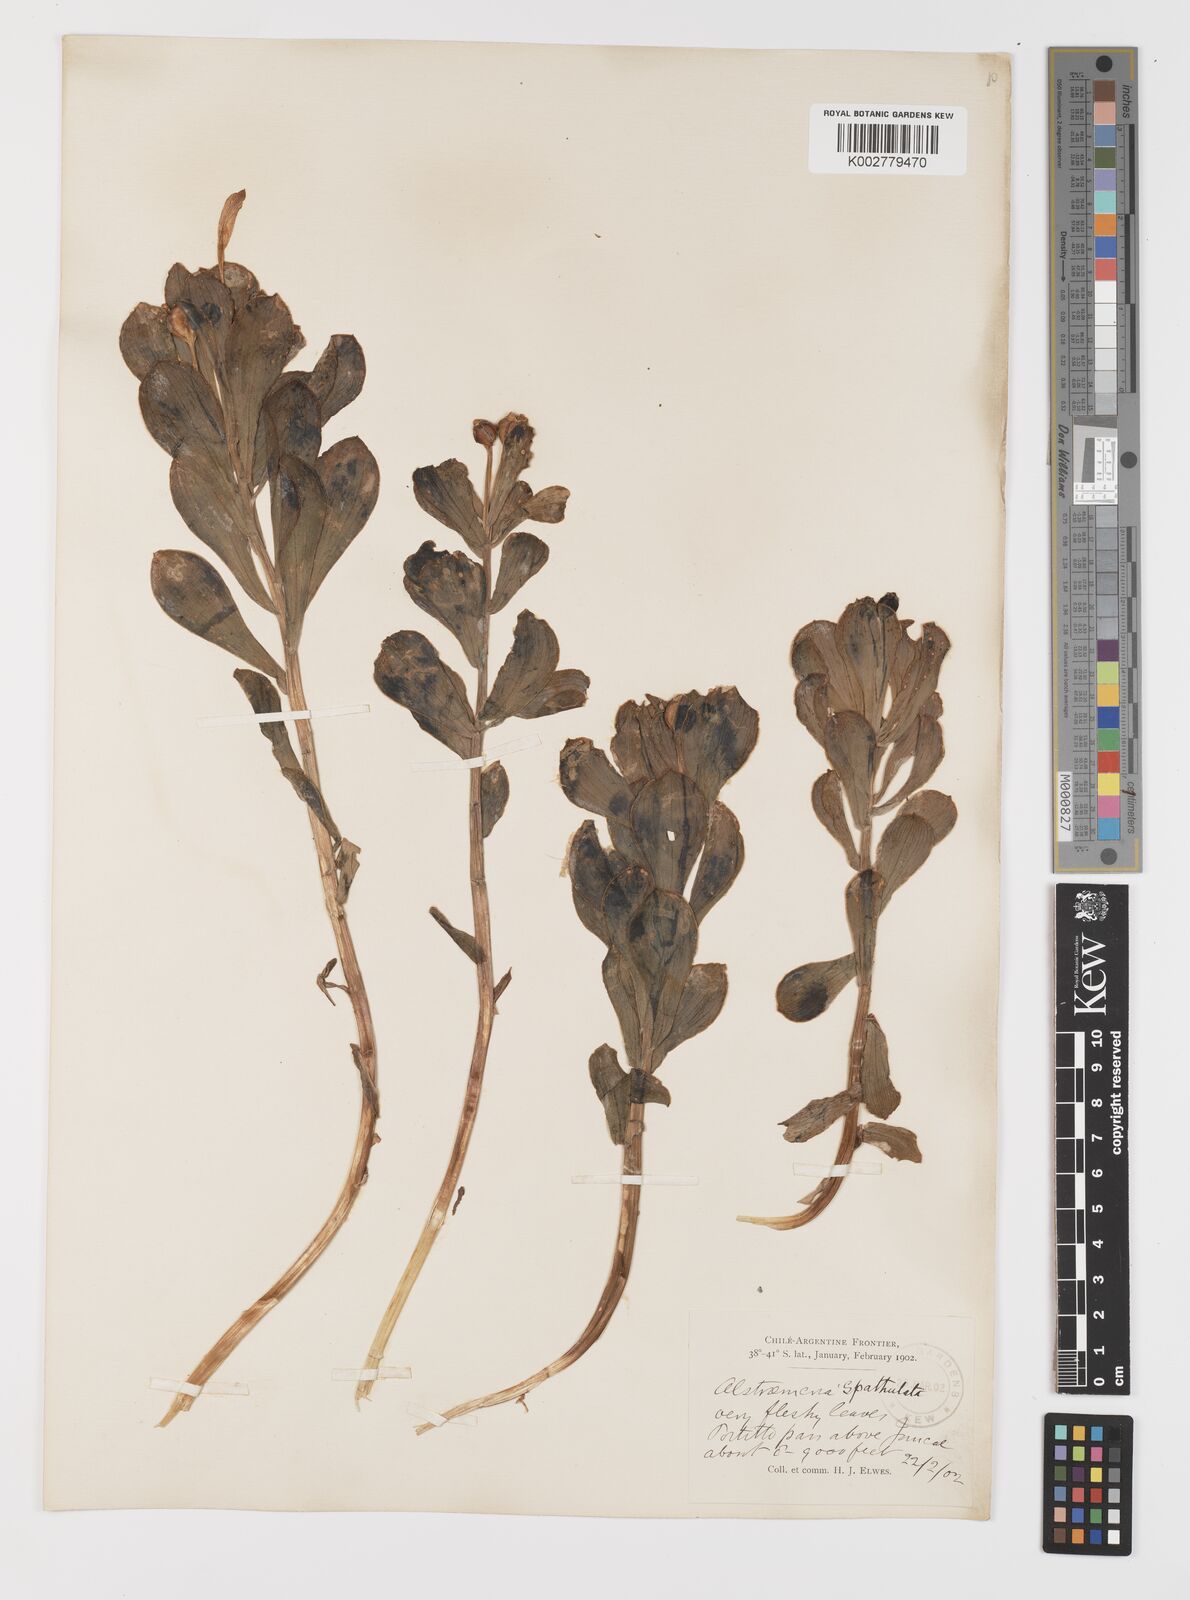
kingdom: Plantae
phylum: Tracheophyta
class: Liliopsida
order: Liliales
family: Alstroemeriaceae
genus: Alstroemeria
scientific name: Alstroemeria spathulata
